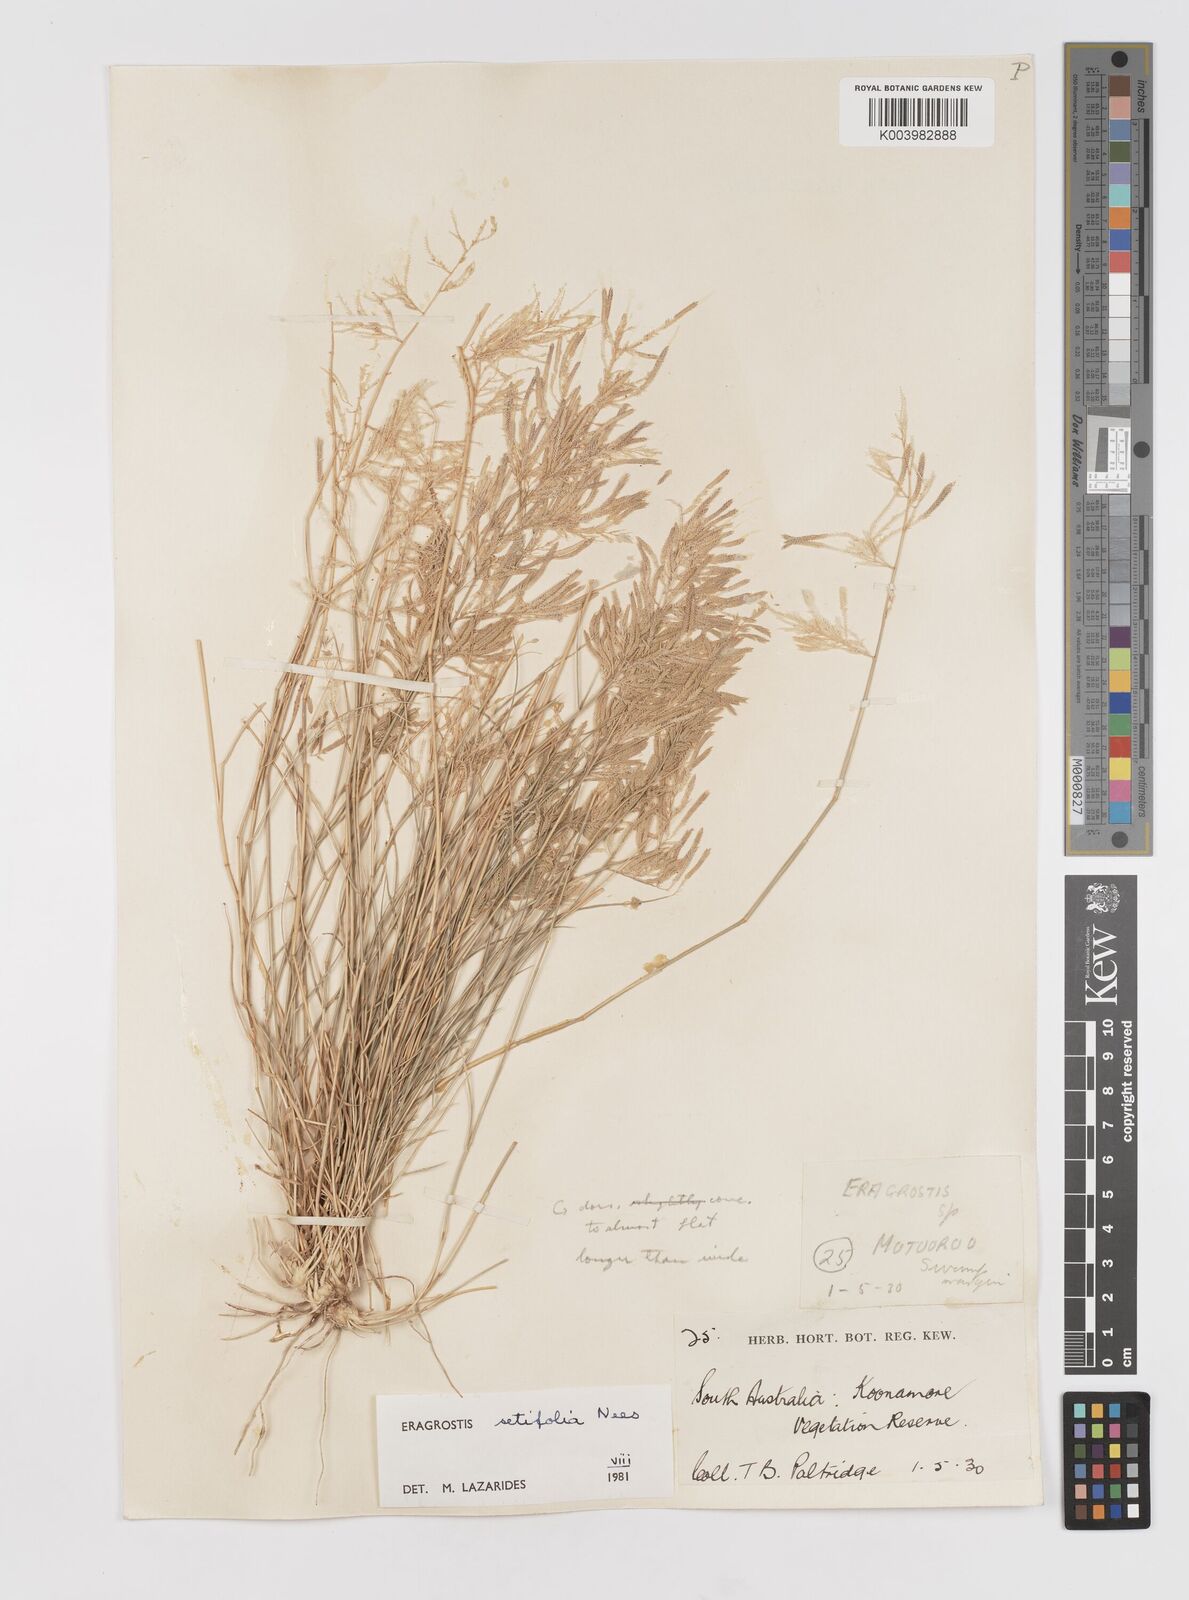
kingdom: Plantae
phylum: Tracheophyta
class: Liliopsida
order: Poales
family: Poaceae
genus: Eragrostis
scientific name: Eragrostis setifolia
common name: Bristleleaf lovegrass
